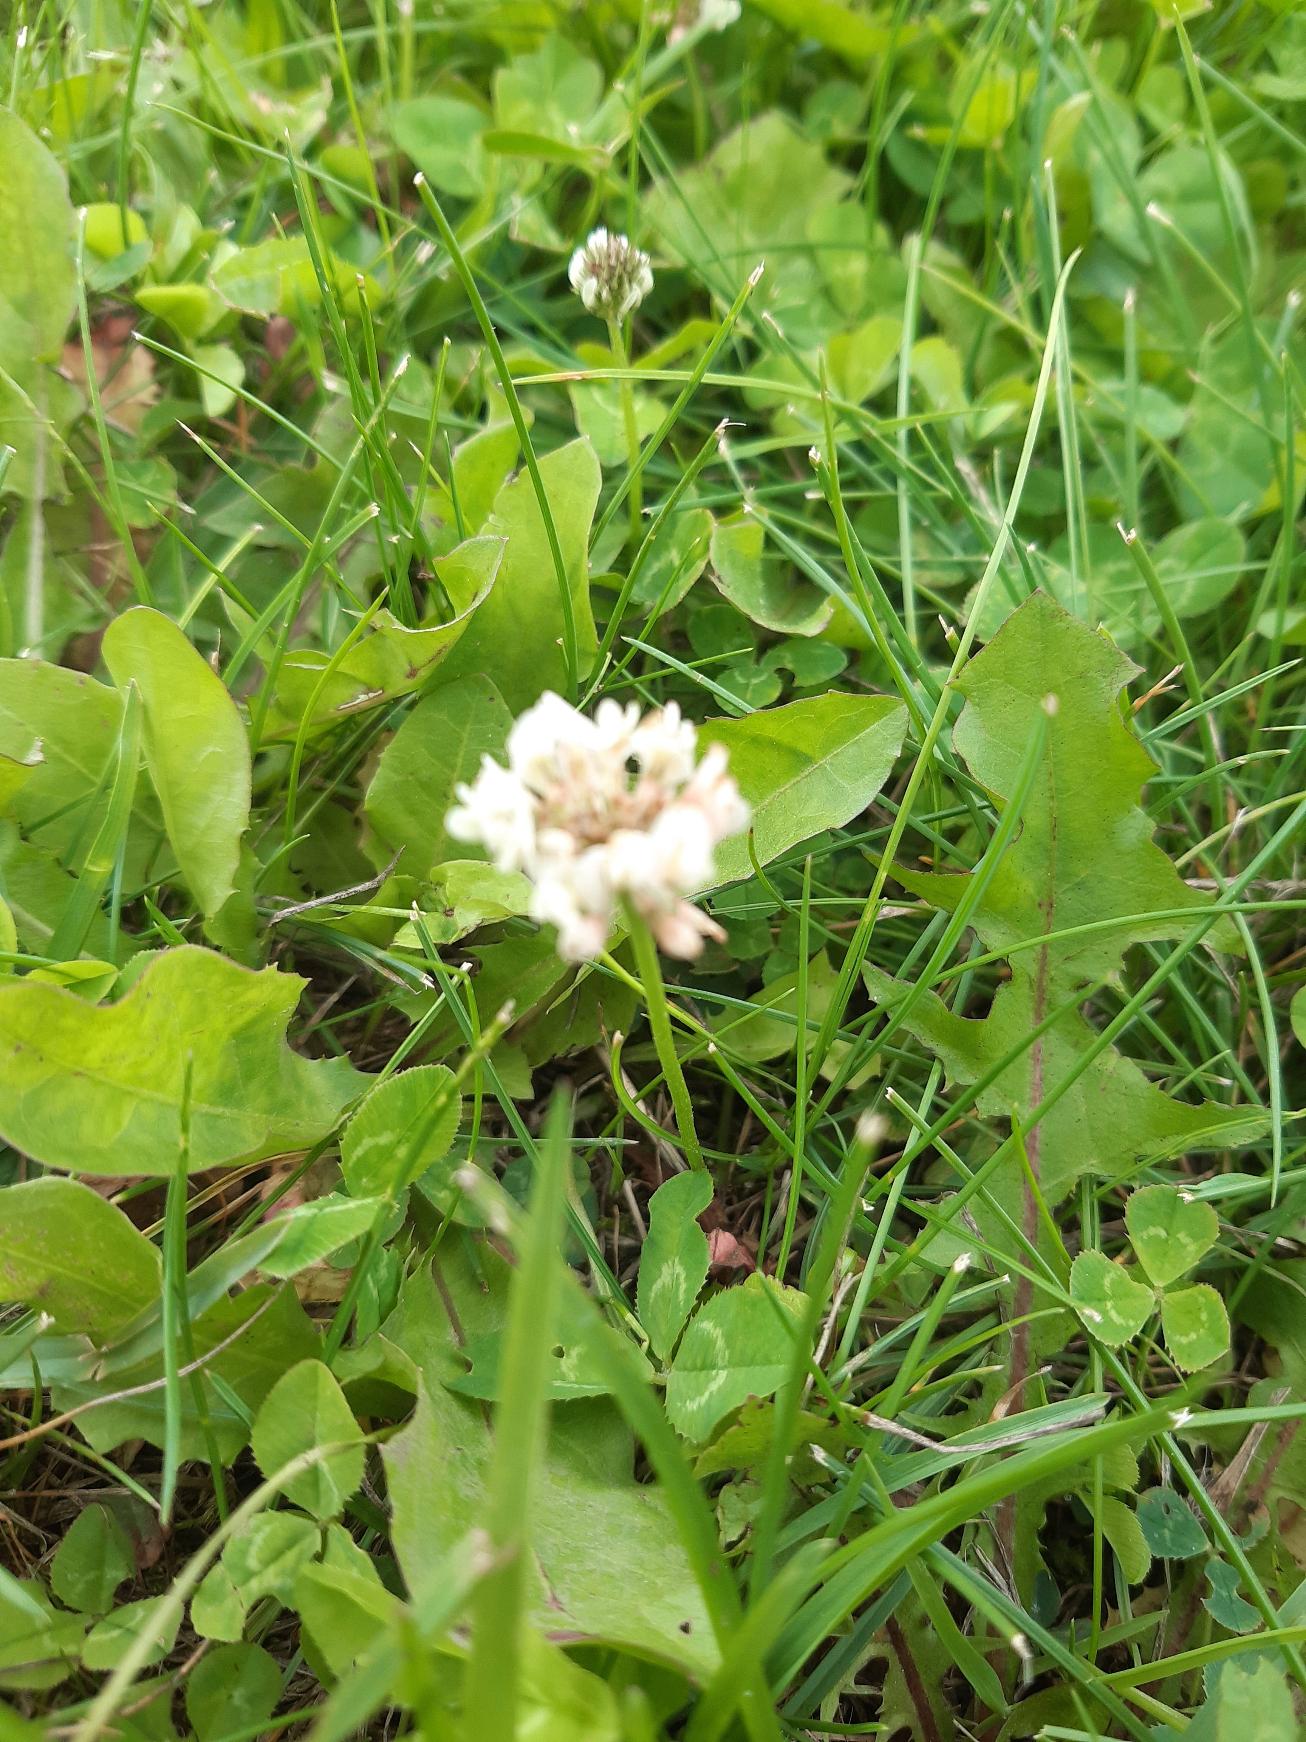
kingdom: Plantae
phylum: Tracheophyta
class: Magnoliopsida
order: Fabales
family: Fabaceae
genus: Trifolium
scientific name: Trifolium repens
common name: Hvid-kløver
